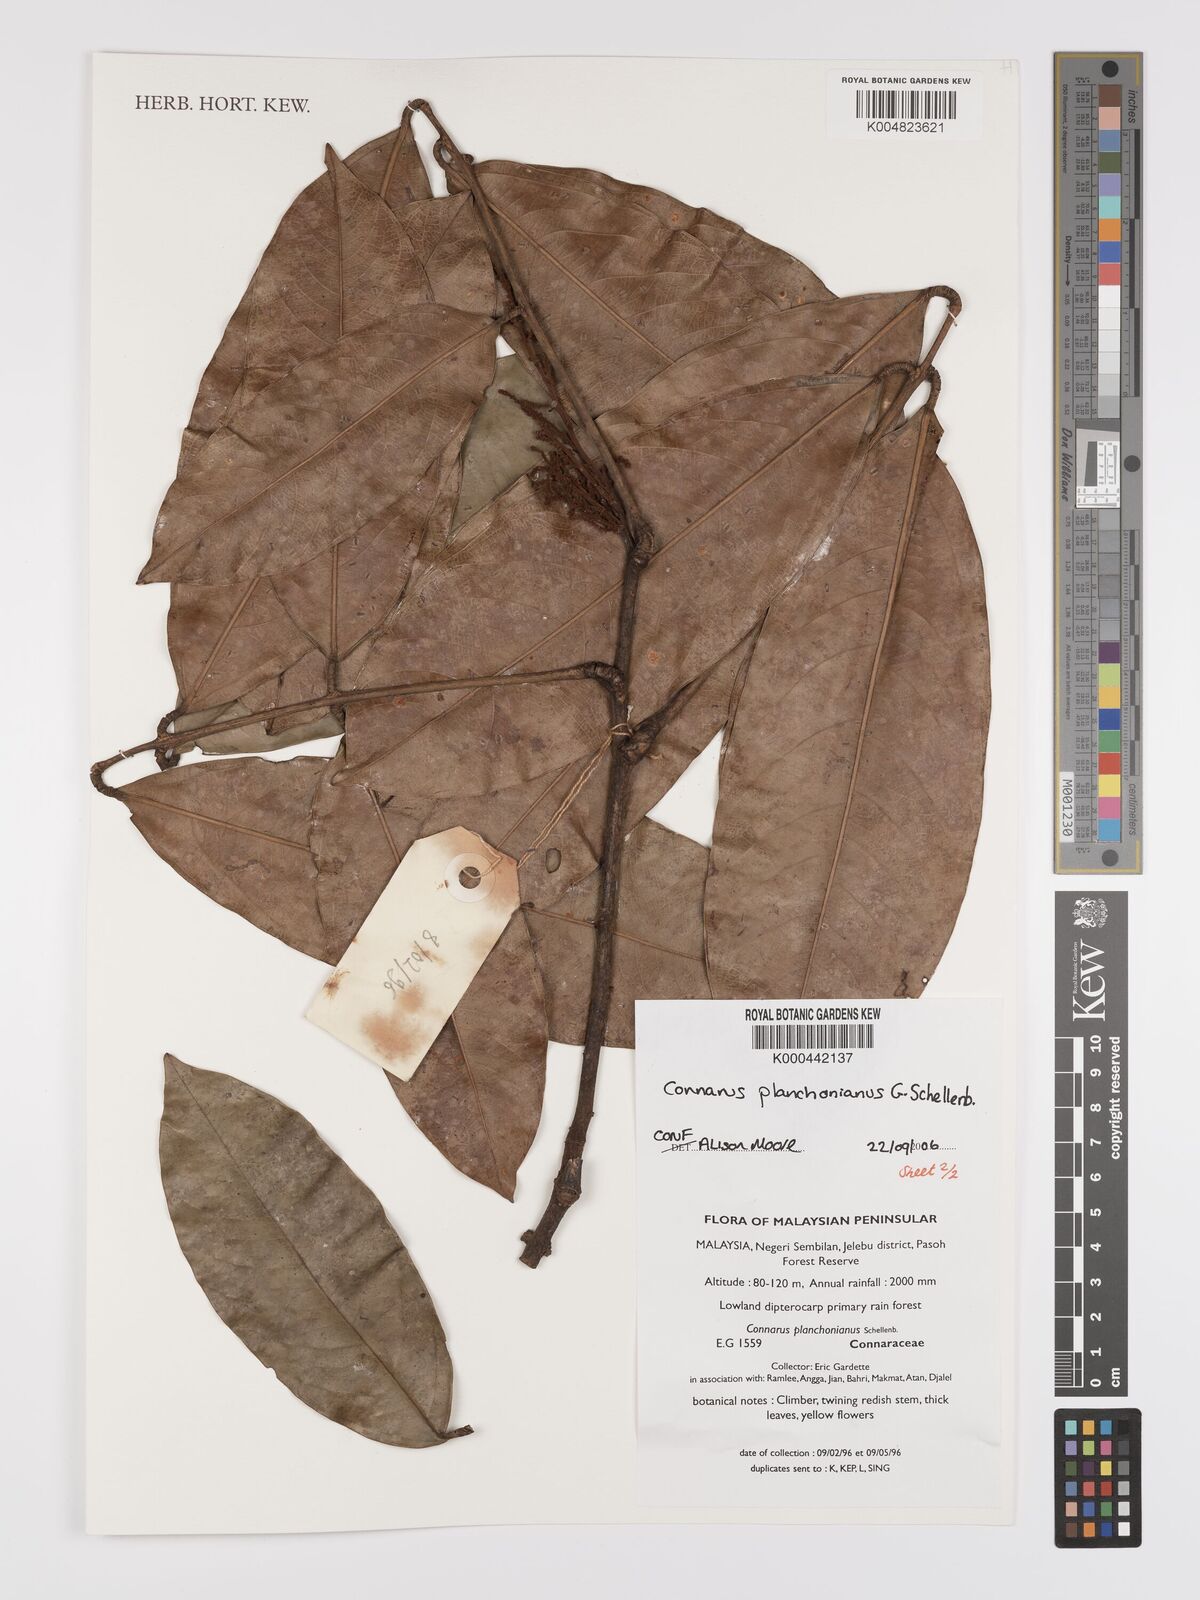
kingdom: Plantae
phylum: Tracheophyta
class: Magnoliopsida
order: Oxalidales
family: Connaraceae
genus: Connarus
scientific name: Connarus planchonianus
